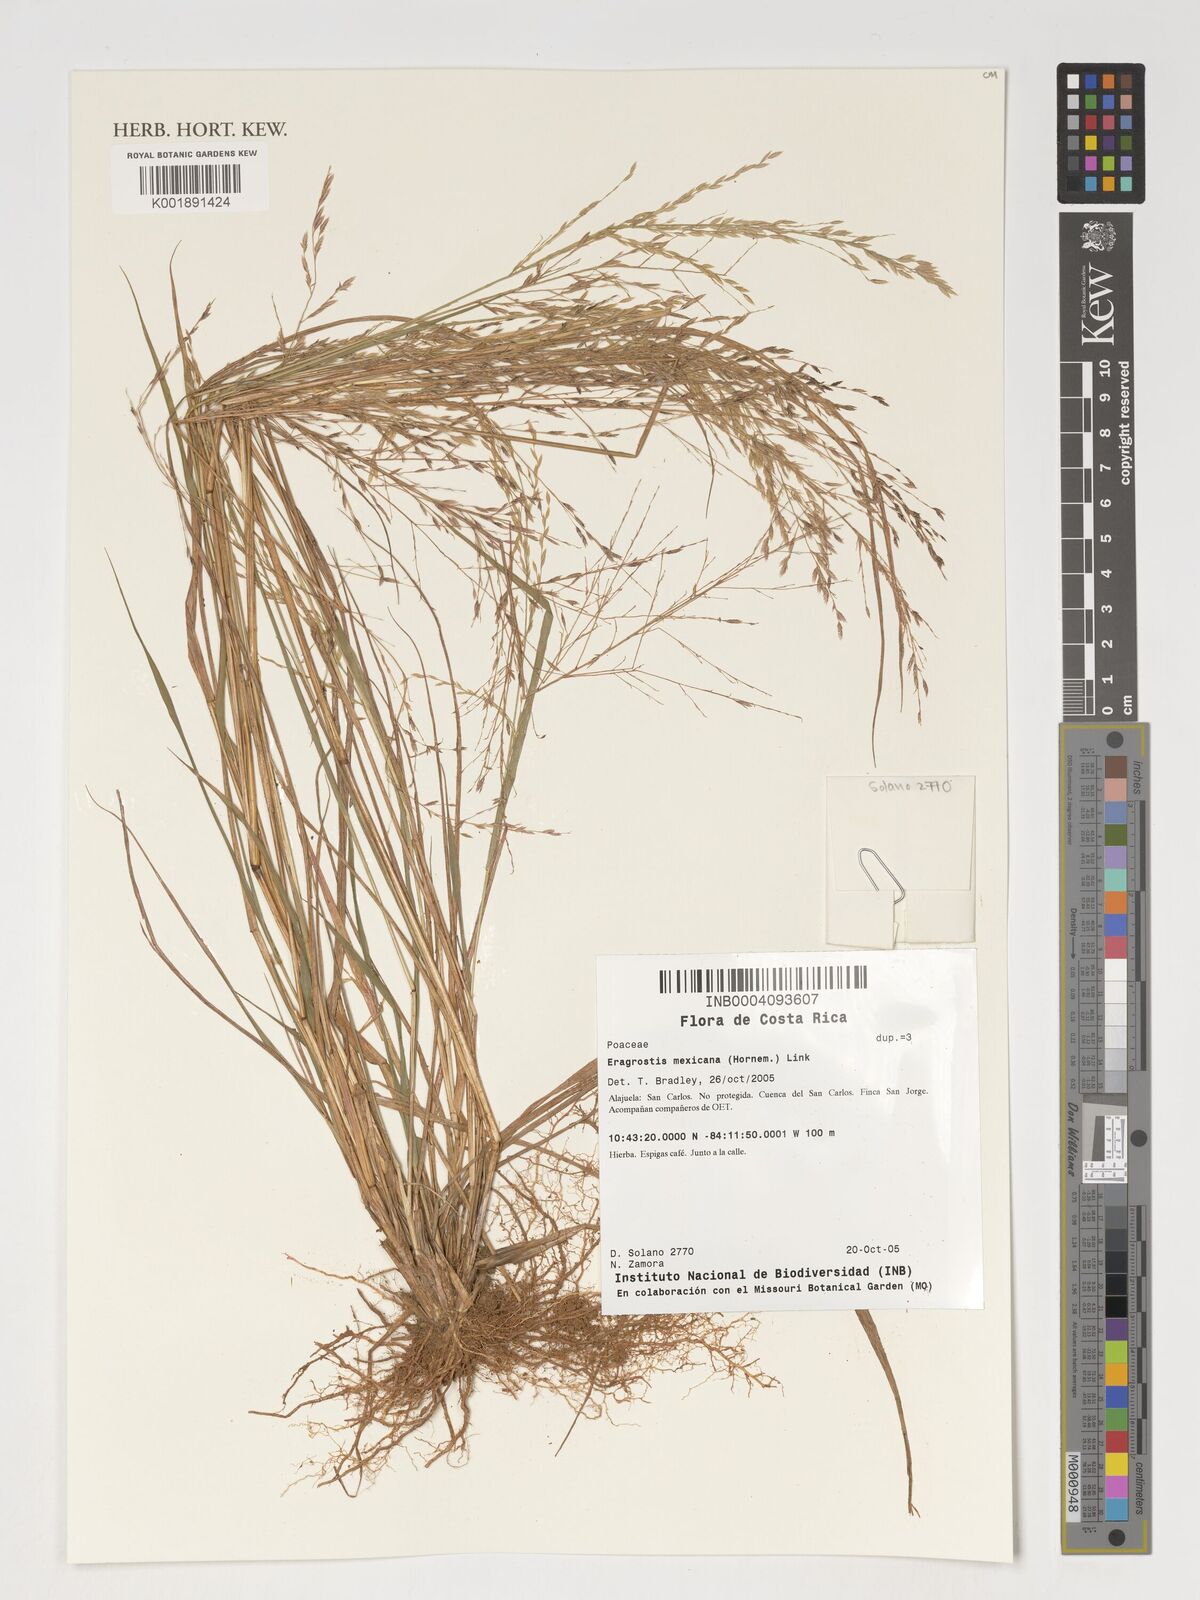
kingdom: Plantae
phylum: Tracheophyta
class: Liliopsida
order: Poales
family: Poaceae
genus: Eragrostis
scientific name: Eragrostis mexicana
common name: Mexican love grass
